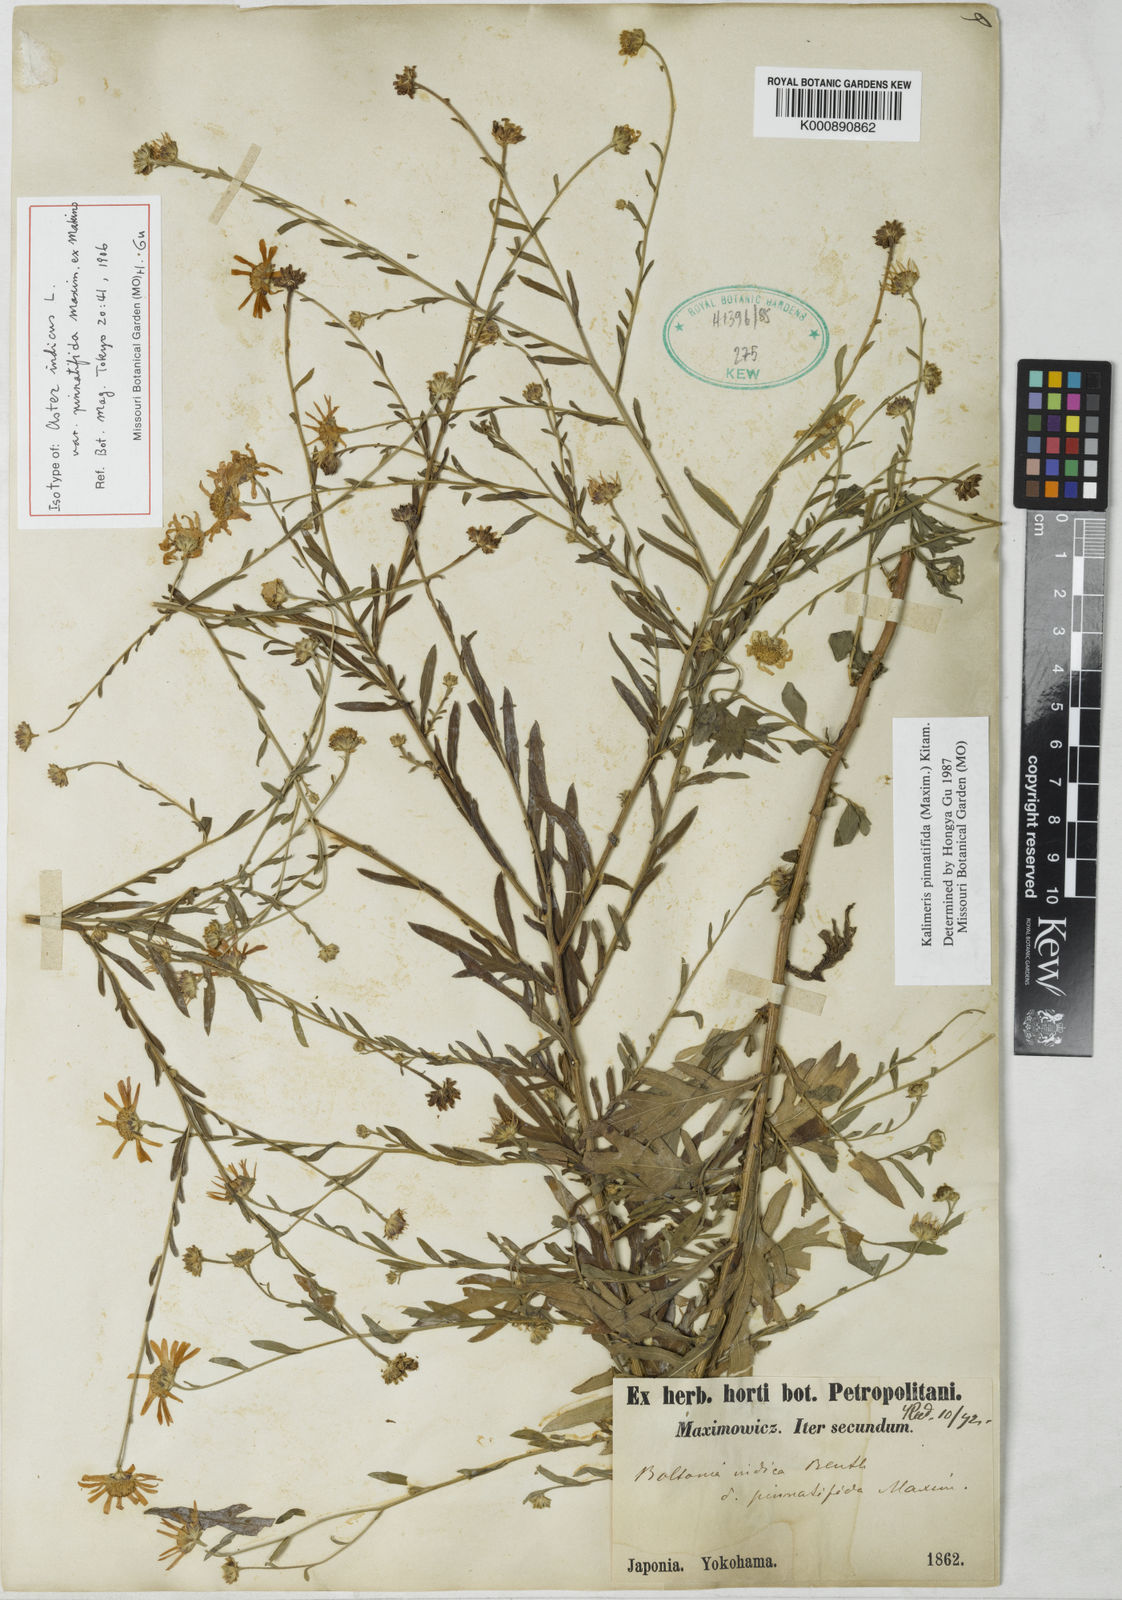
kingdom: Plantae
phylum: Tracheophyta
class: Magnoliopsida
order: Asterales
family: Asteraceae
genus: Kalimeris
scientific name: Kalimeris pinnatifida
